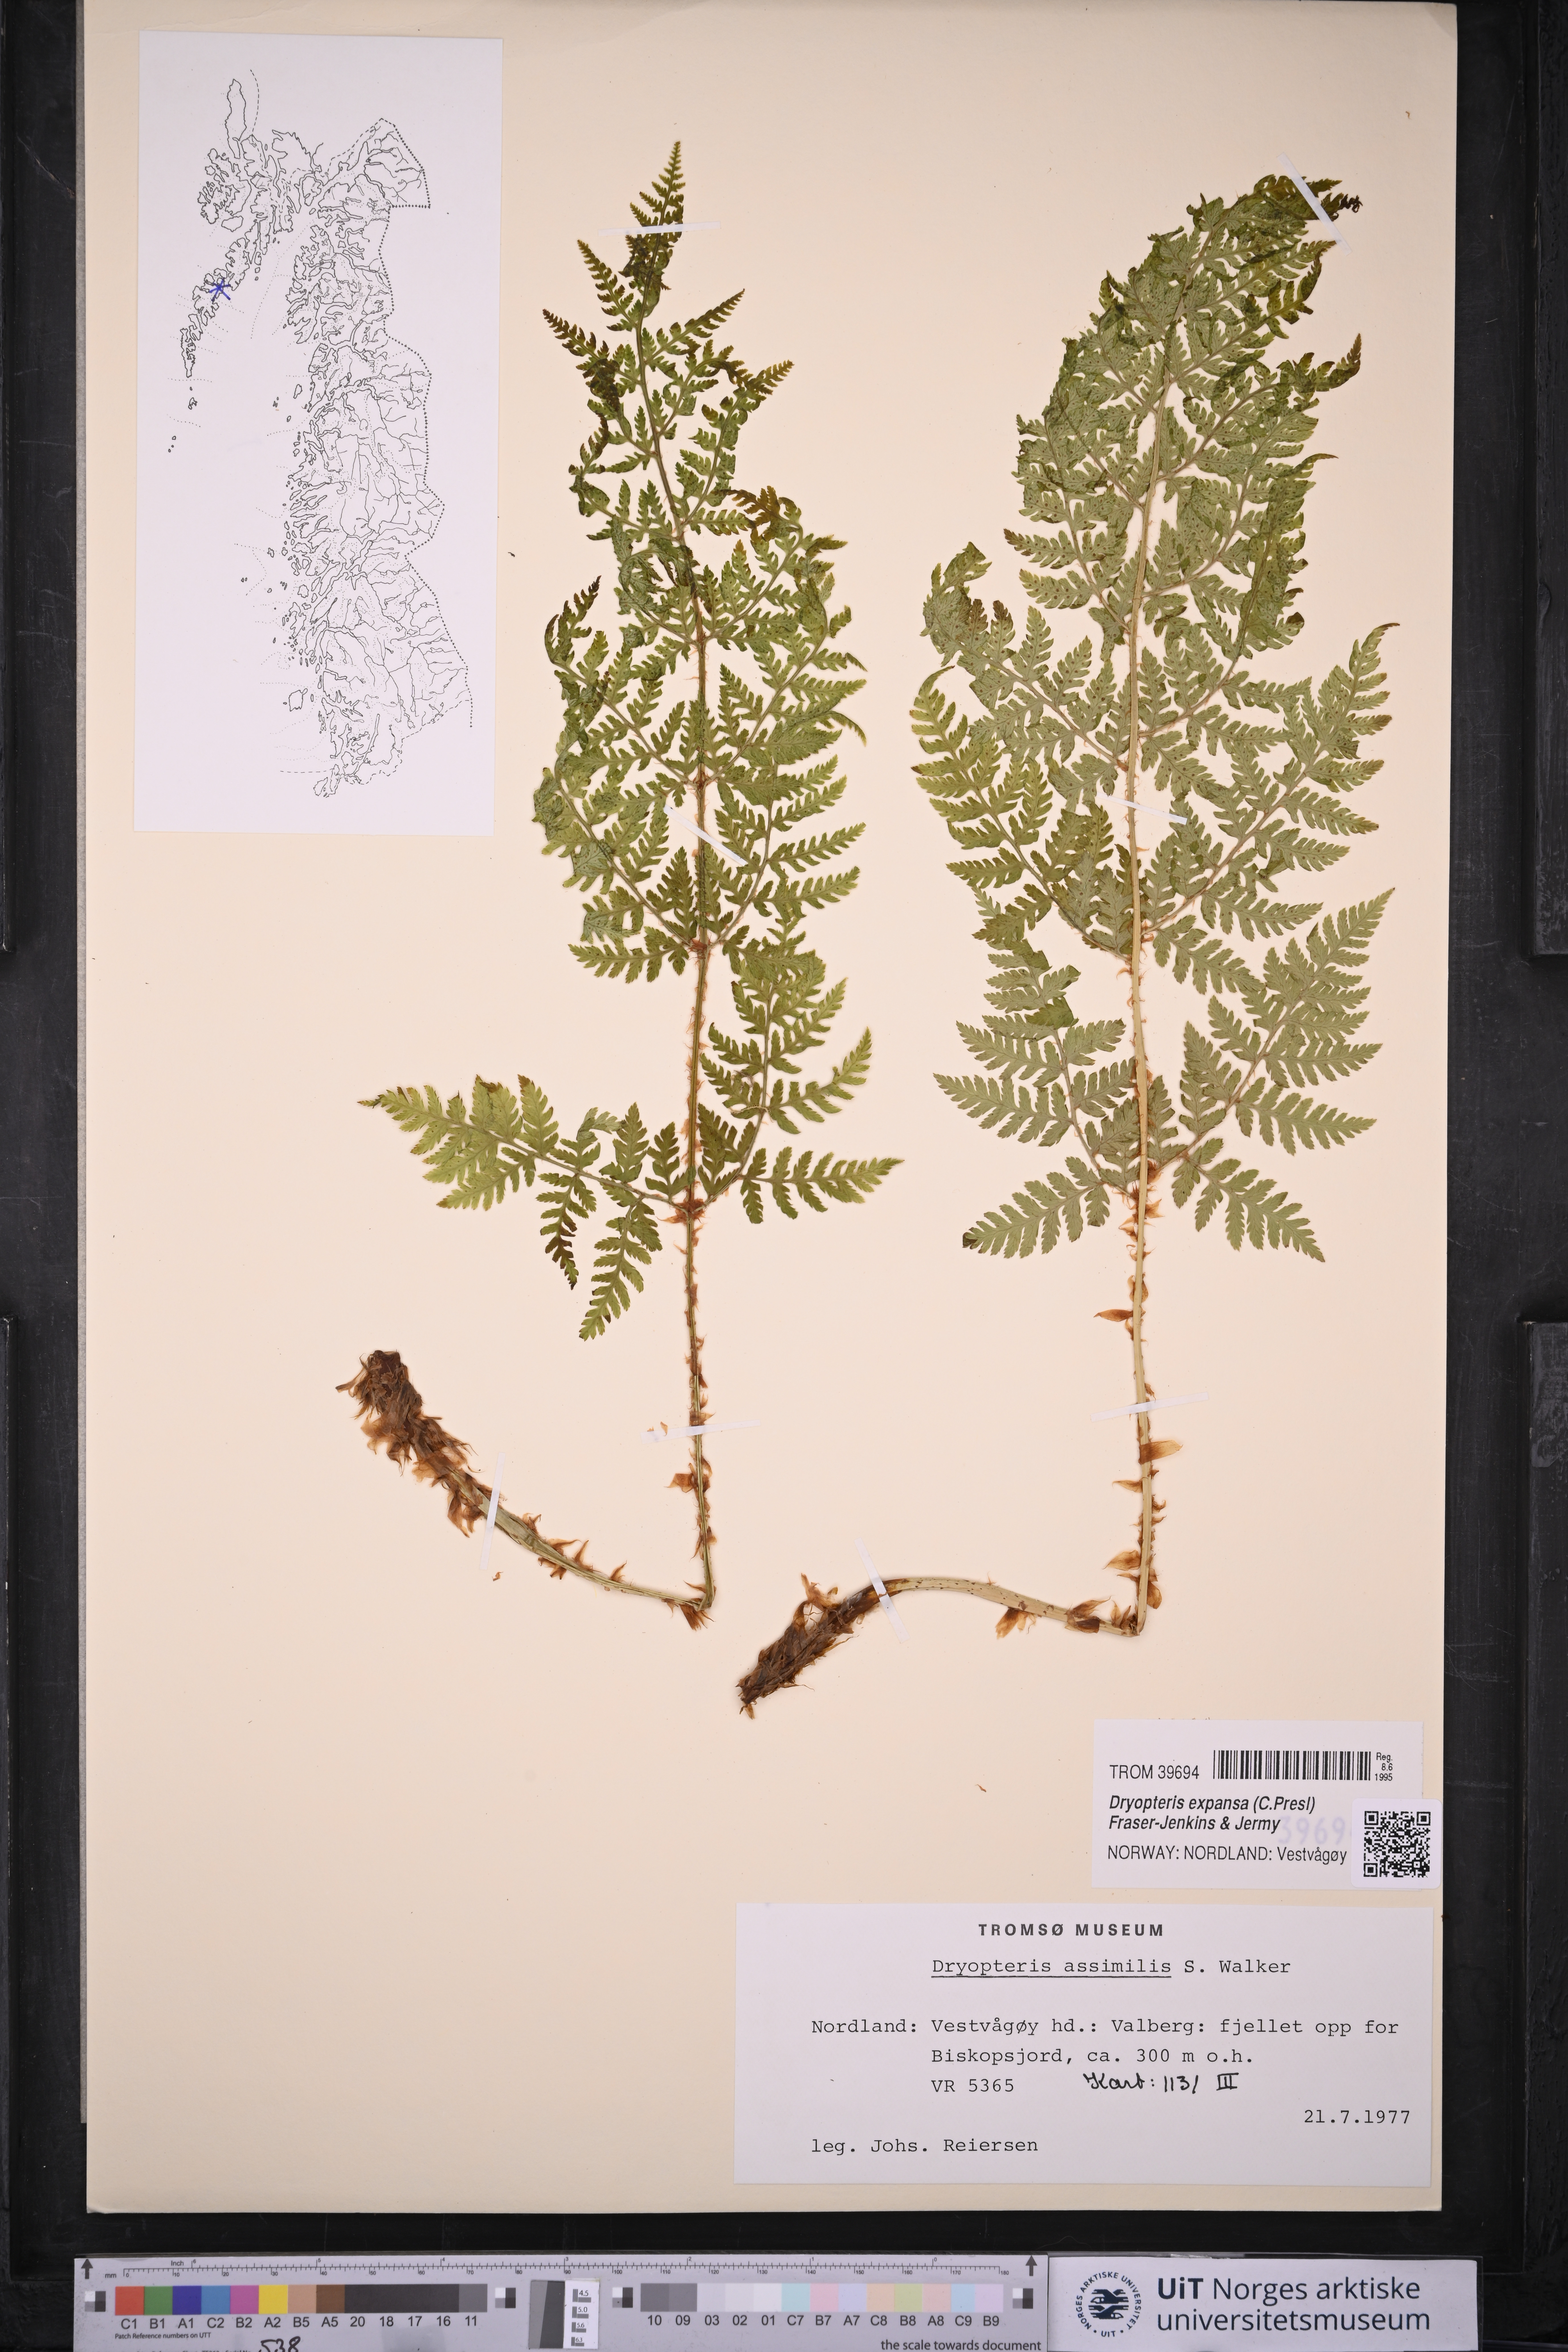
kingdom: Plantae
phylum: Tracheophyta
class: Polypodiopsida
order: Polypodiales
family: Dryopteridaceae
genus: Dryopteris
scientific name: Dryopteris expansa
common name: Northern buckler fern
